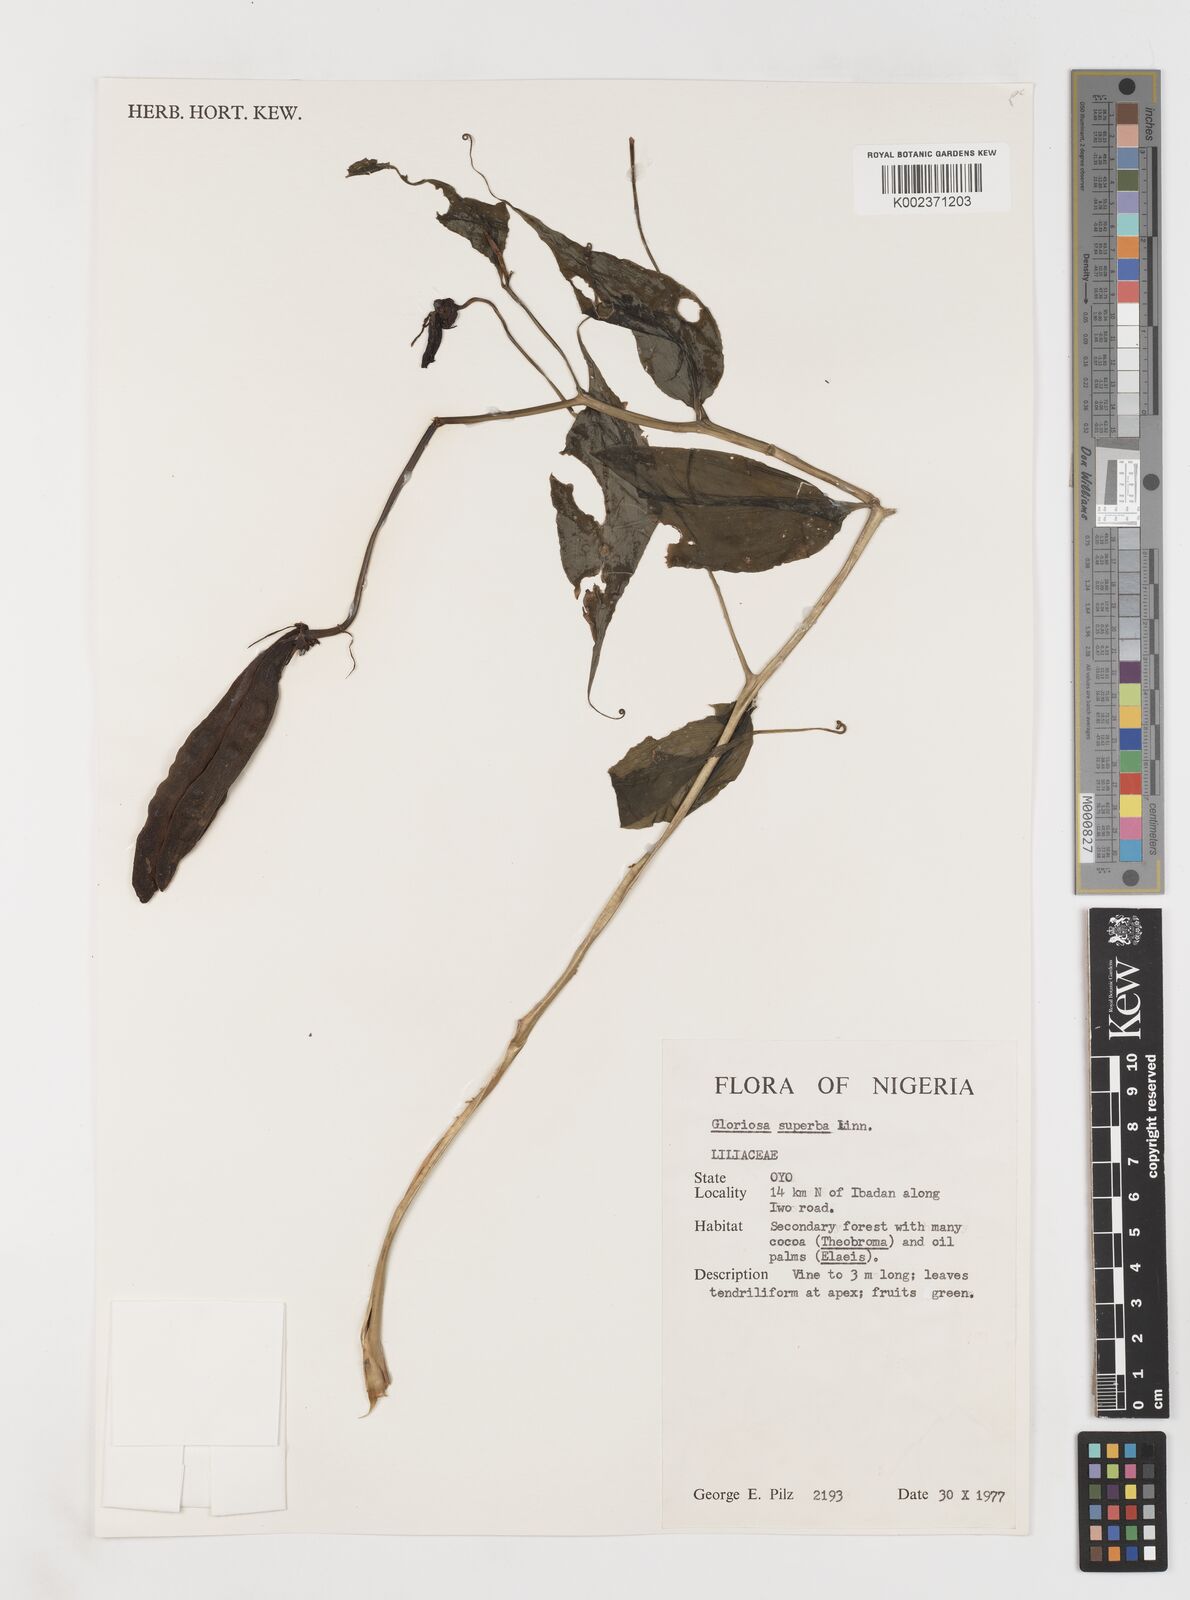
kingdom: Plantae
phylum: Tracheophyta
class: Liliopsida
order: Liliales
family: Colchicaceae
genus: Gloriosa
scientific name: Gloriosa simplex
